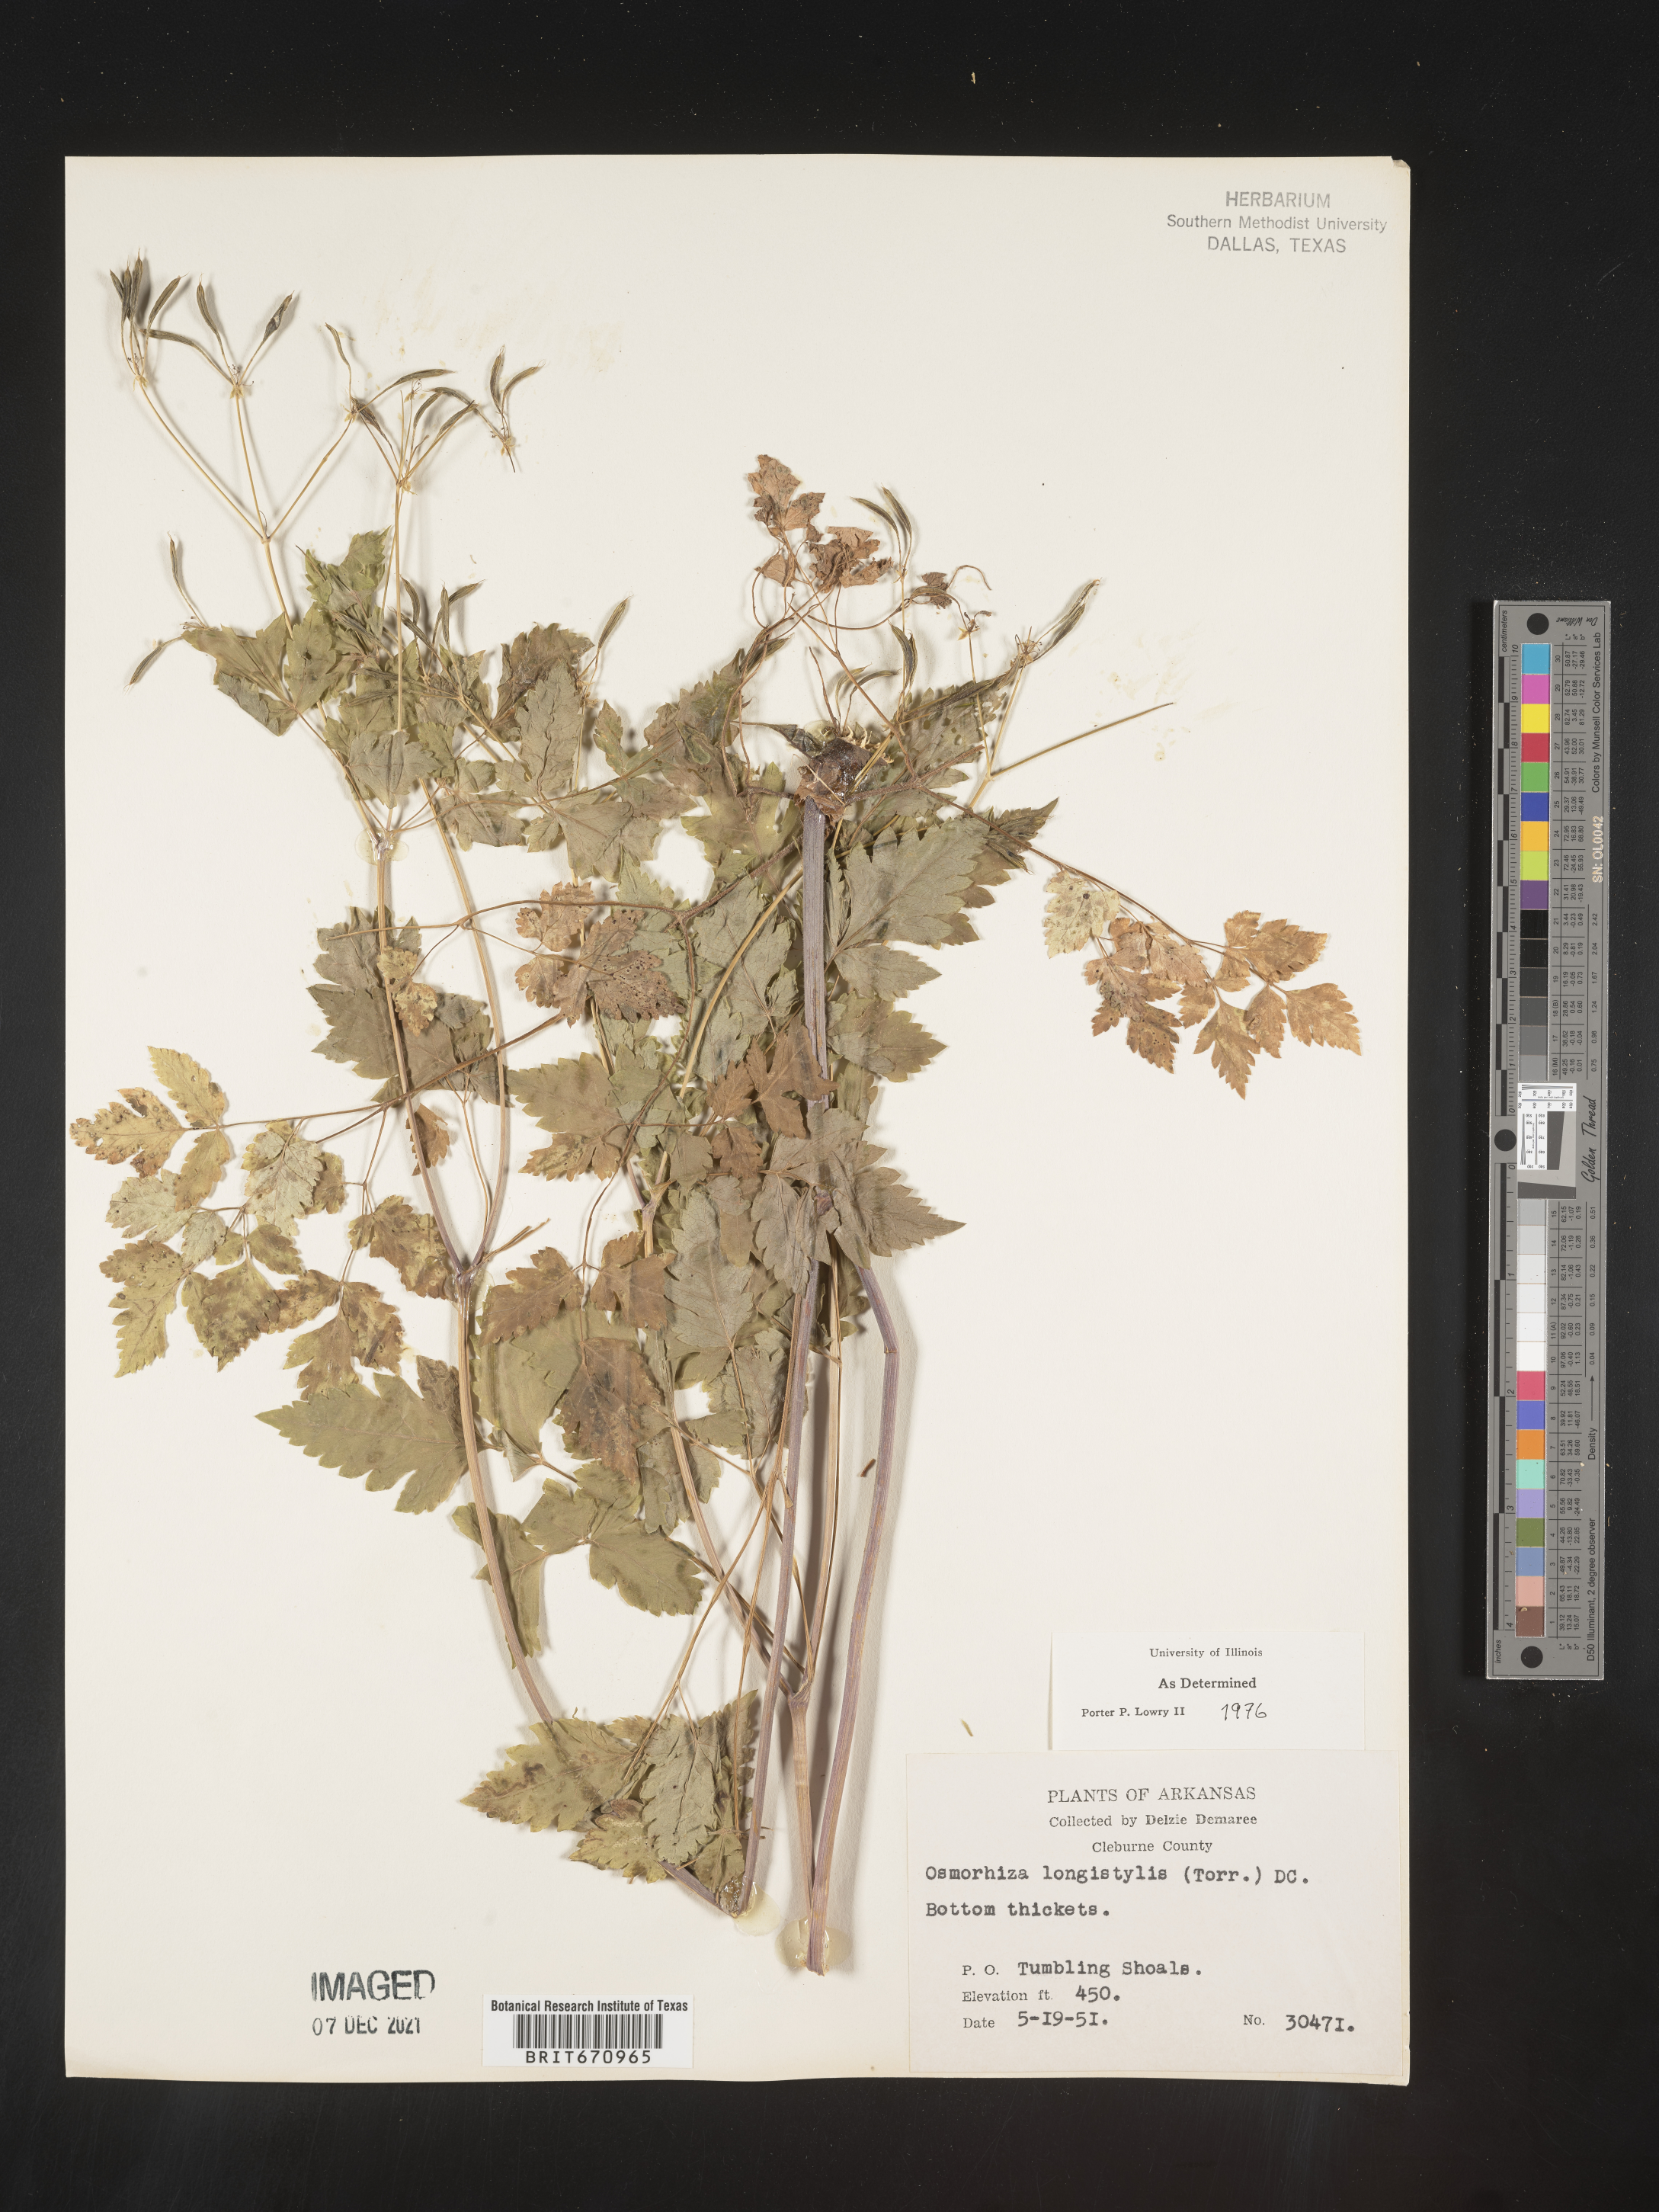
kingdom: Plantae
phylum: Tracheophyta
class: Magnoliopsida
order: Apiales
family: Apiaceae
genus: Osmorhiza
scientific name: Osmorhiza longistylis
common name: Smooth sweet cicely
